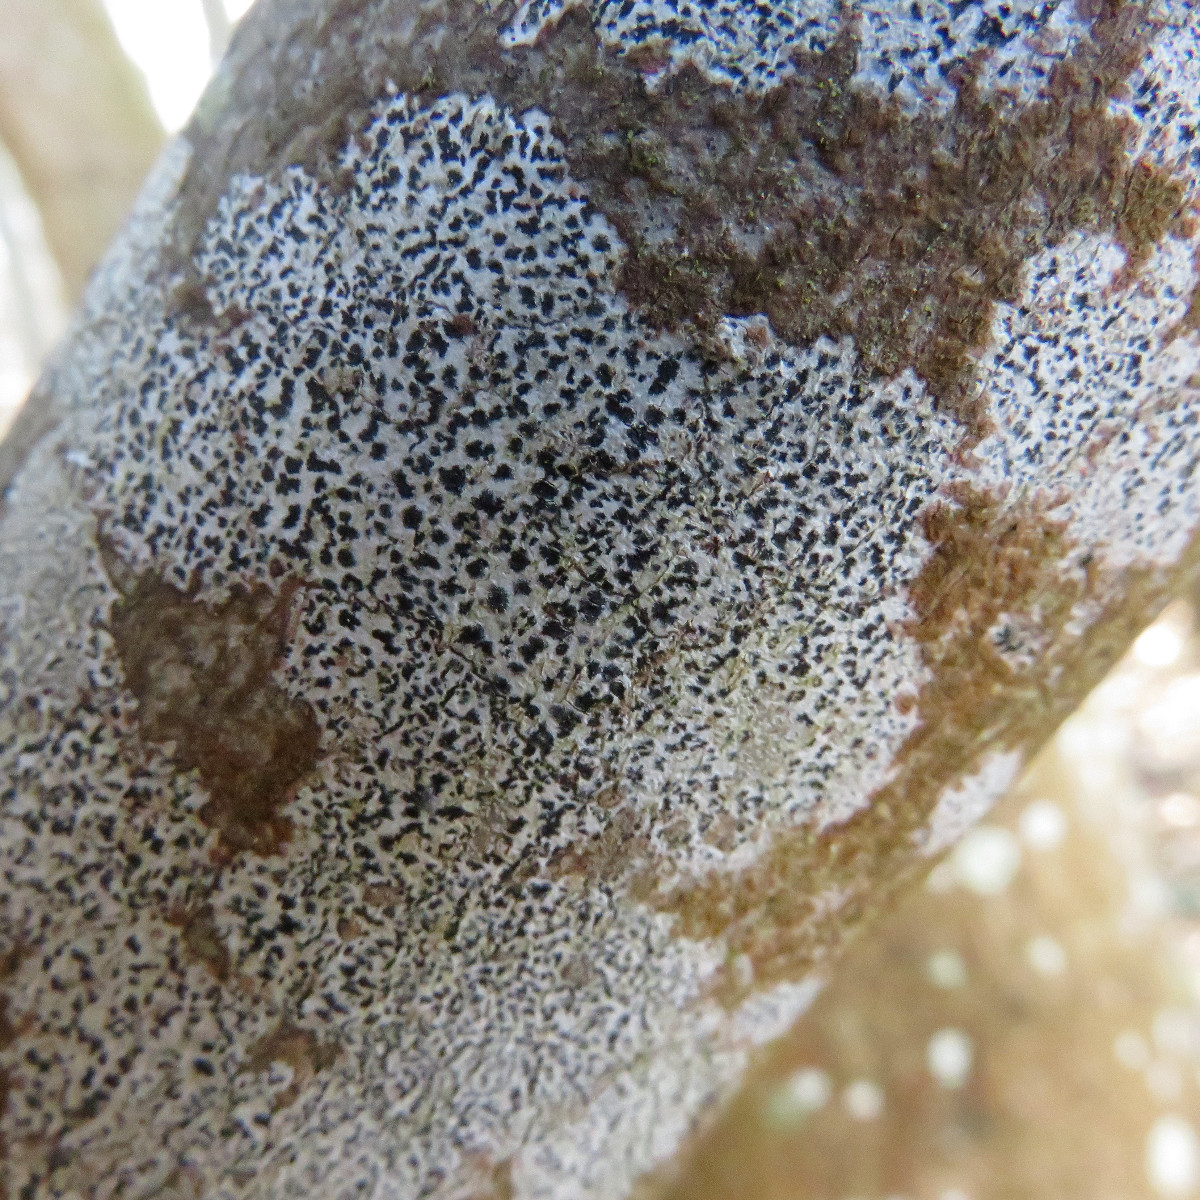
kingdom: Fungi
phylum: Ascomycota
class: Arthoniomycetes
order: Arthoniales
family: Arthoniaceae
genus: Arthonia
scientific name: Arthonia radiata
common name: stjerne-pletlav
